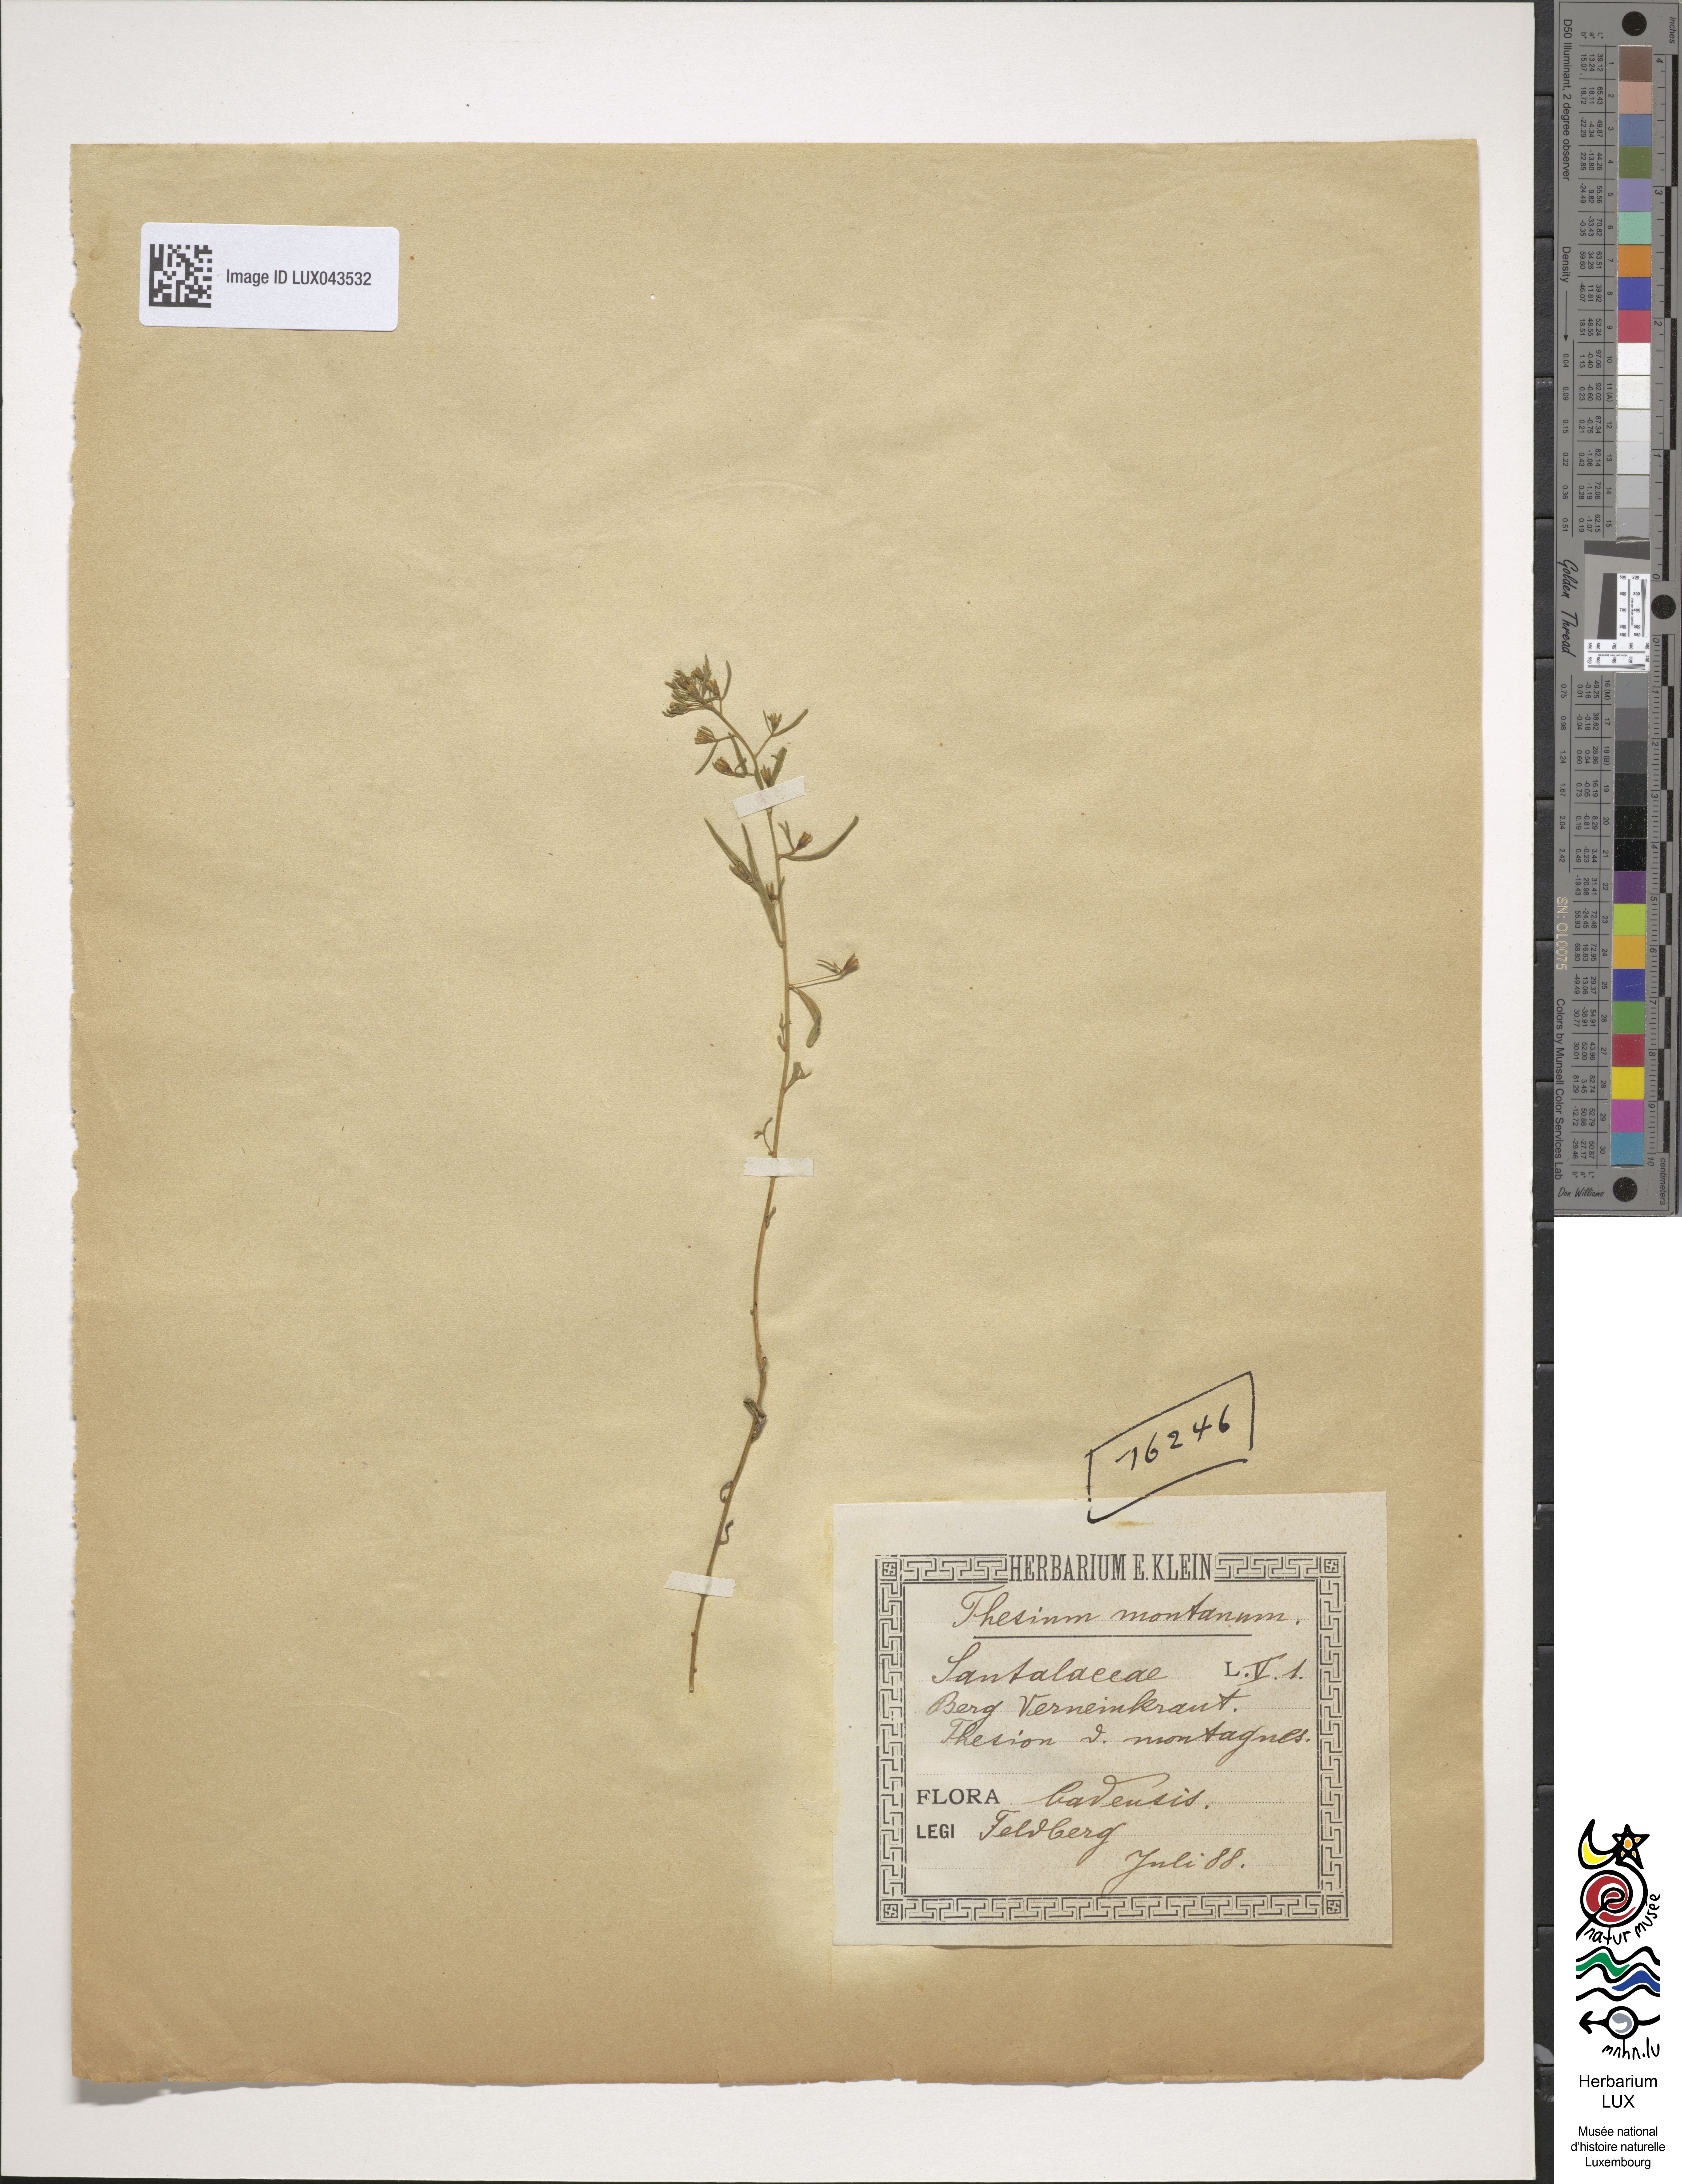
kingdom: Plantae
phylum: Tracheophyta
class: Magnoliopsida
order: Santalales
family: Thesiaceae
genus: Thesium
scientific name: Thesium bavarum
